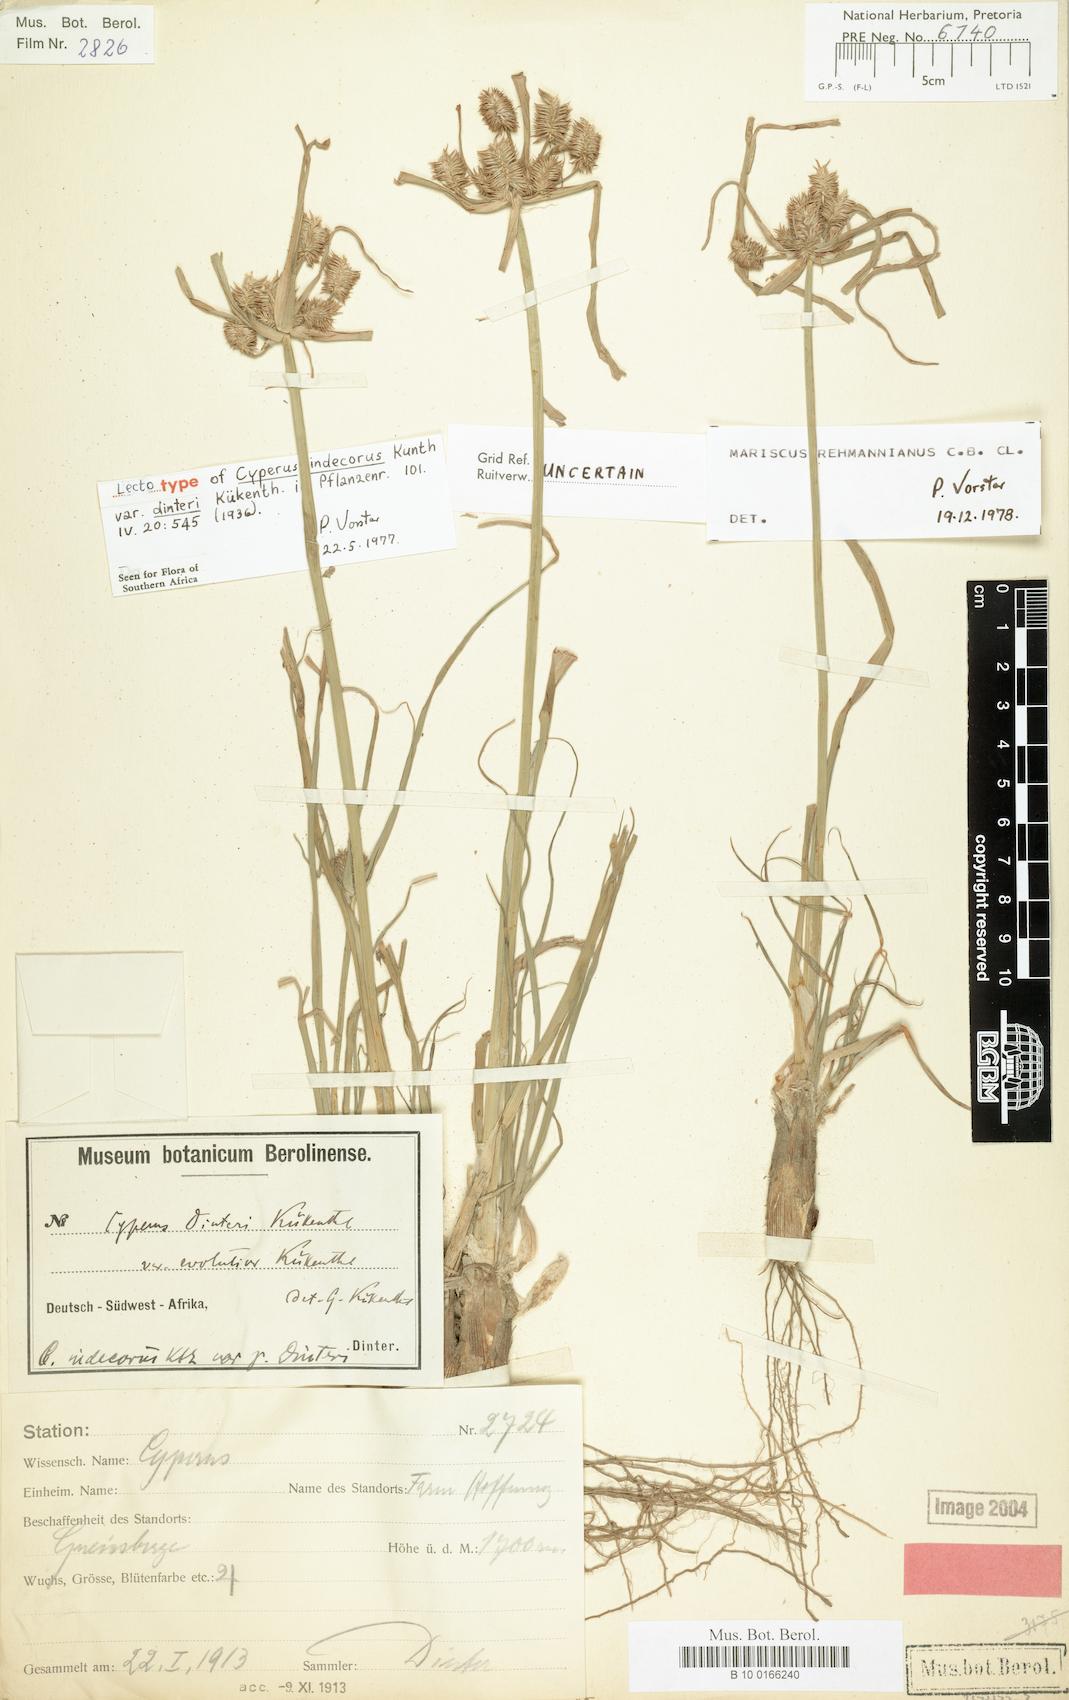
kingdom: Plantae
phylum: Tracheophyta
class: Liliopsida
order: Poales
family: Cyperaceae
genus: Cyperus
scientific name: Cyperus decurvatus
